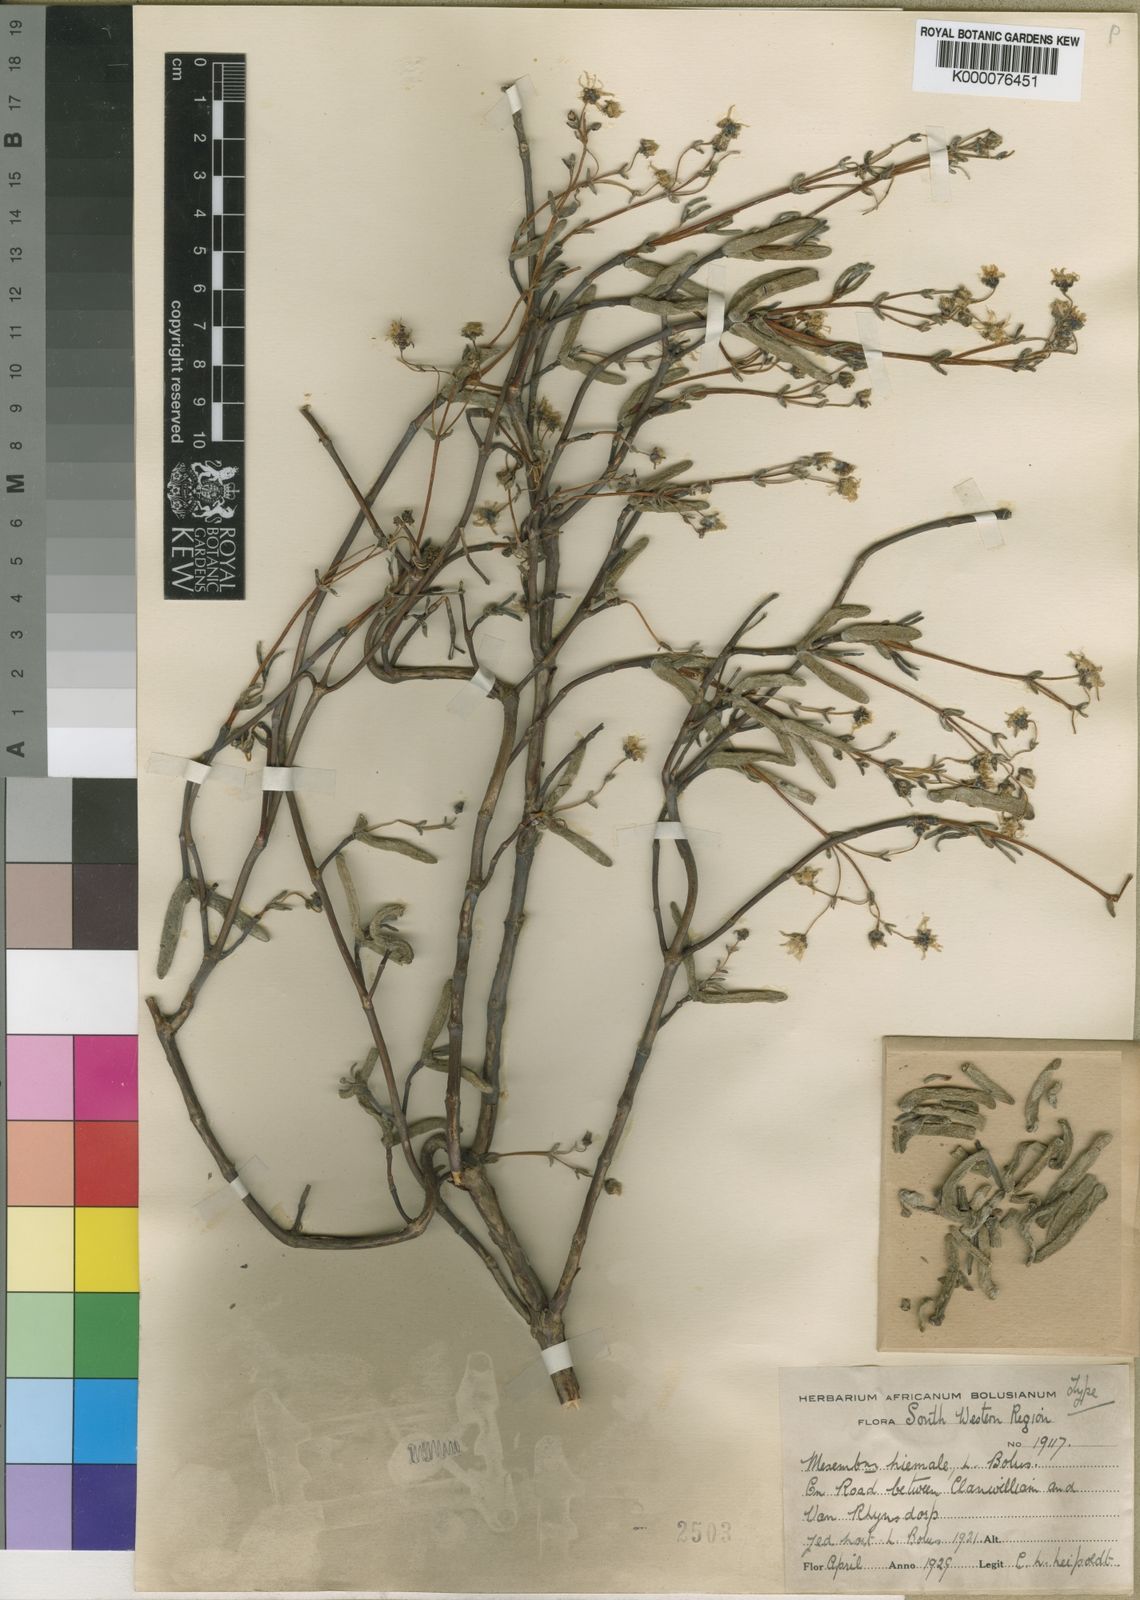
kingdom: Plantae
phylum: Tracheophyta
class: Magnoliopsida
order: Caryophyllales
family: Aizoaceae
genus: Lampranthus
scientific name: Lampranthus hiemalis
